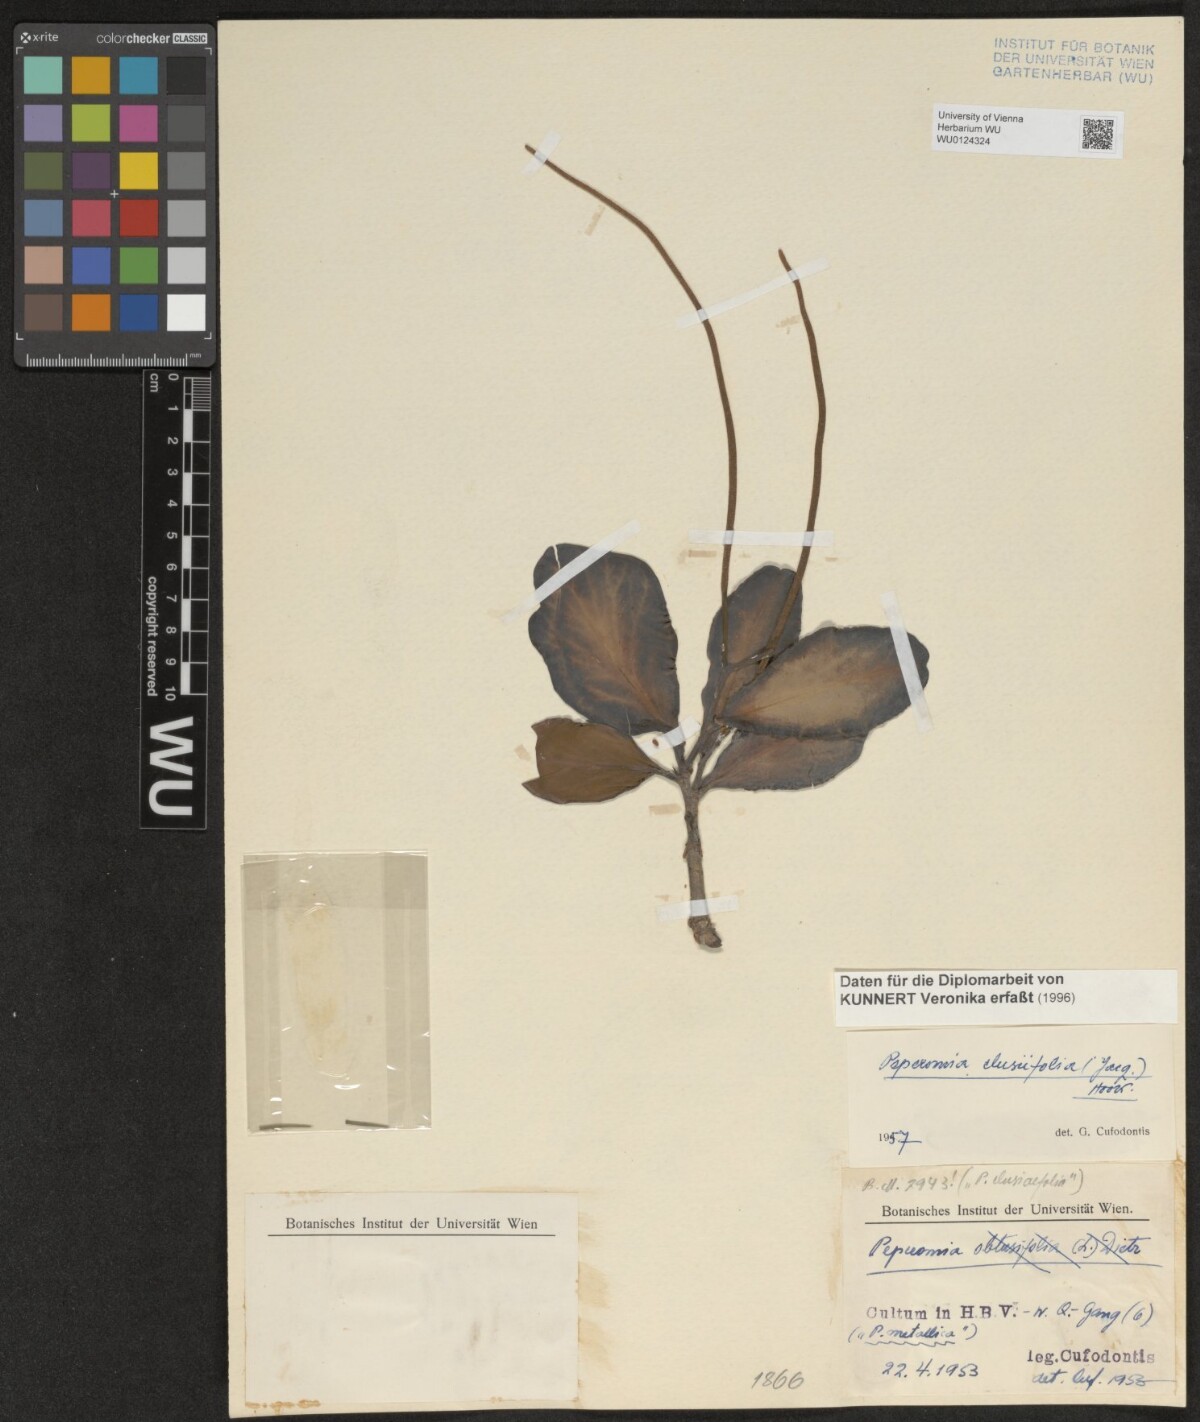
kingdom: Plantae
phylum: Tracheophyta
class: Magnoliopsida
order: Piperales
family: Piperaceae
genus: Peperomia
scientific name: Peperomia clusiifolia
